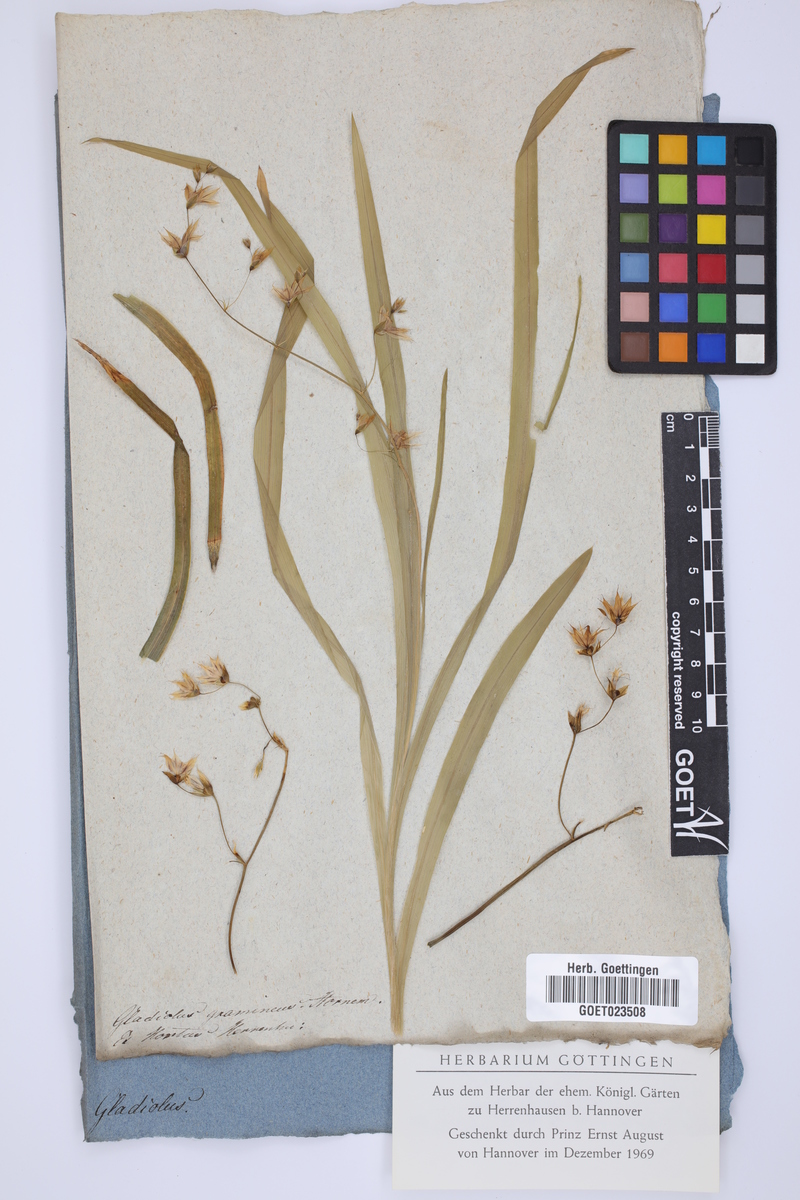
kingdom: Plantae
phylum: Tracheophyta
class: Liliopsida
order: Asparagales
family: Iridaceae
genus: Ixia
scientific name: Ixia scillaris
